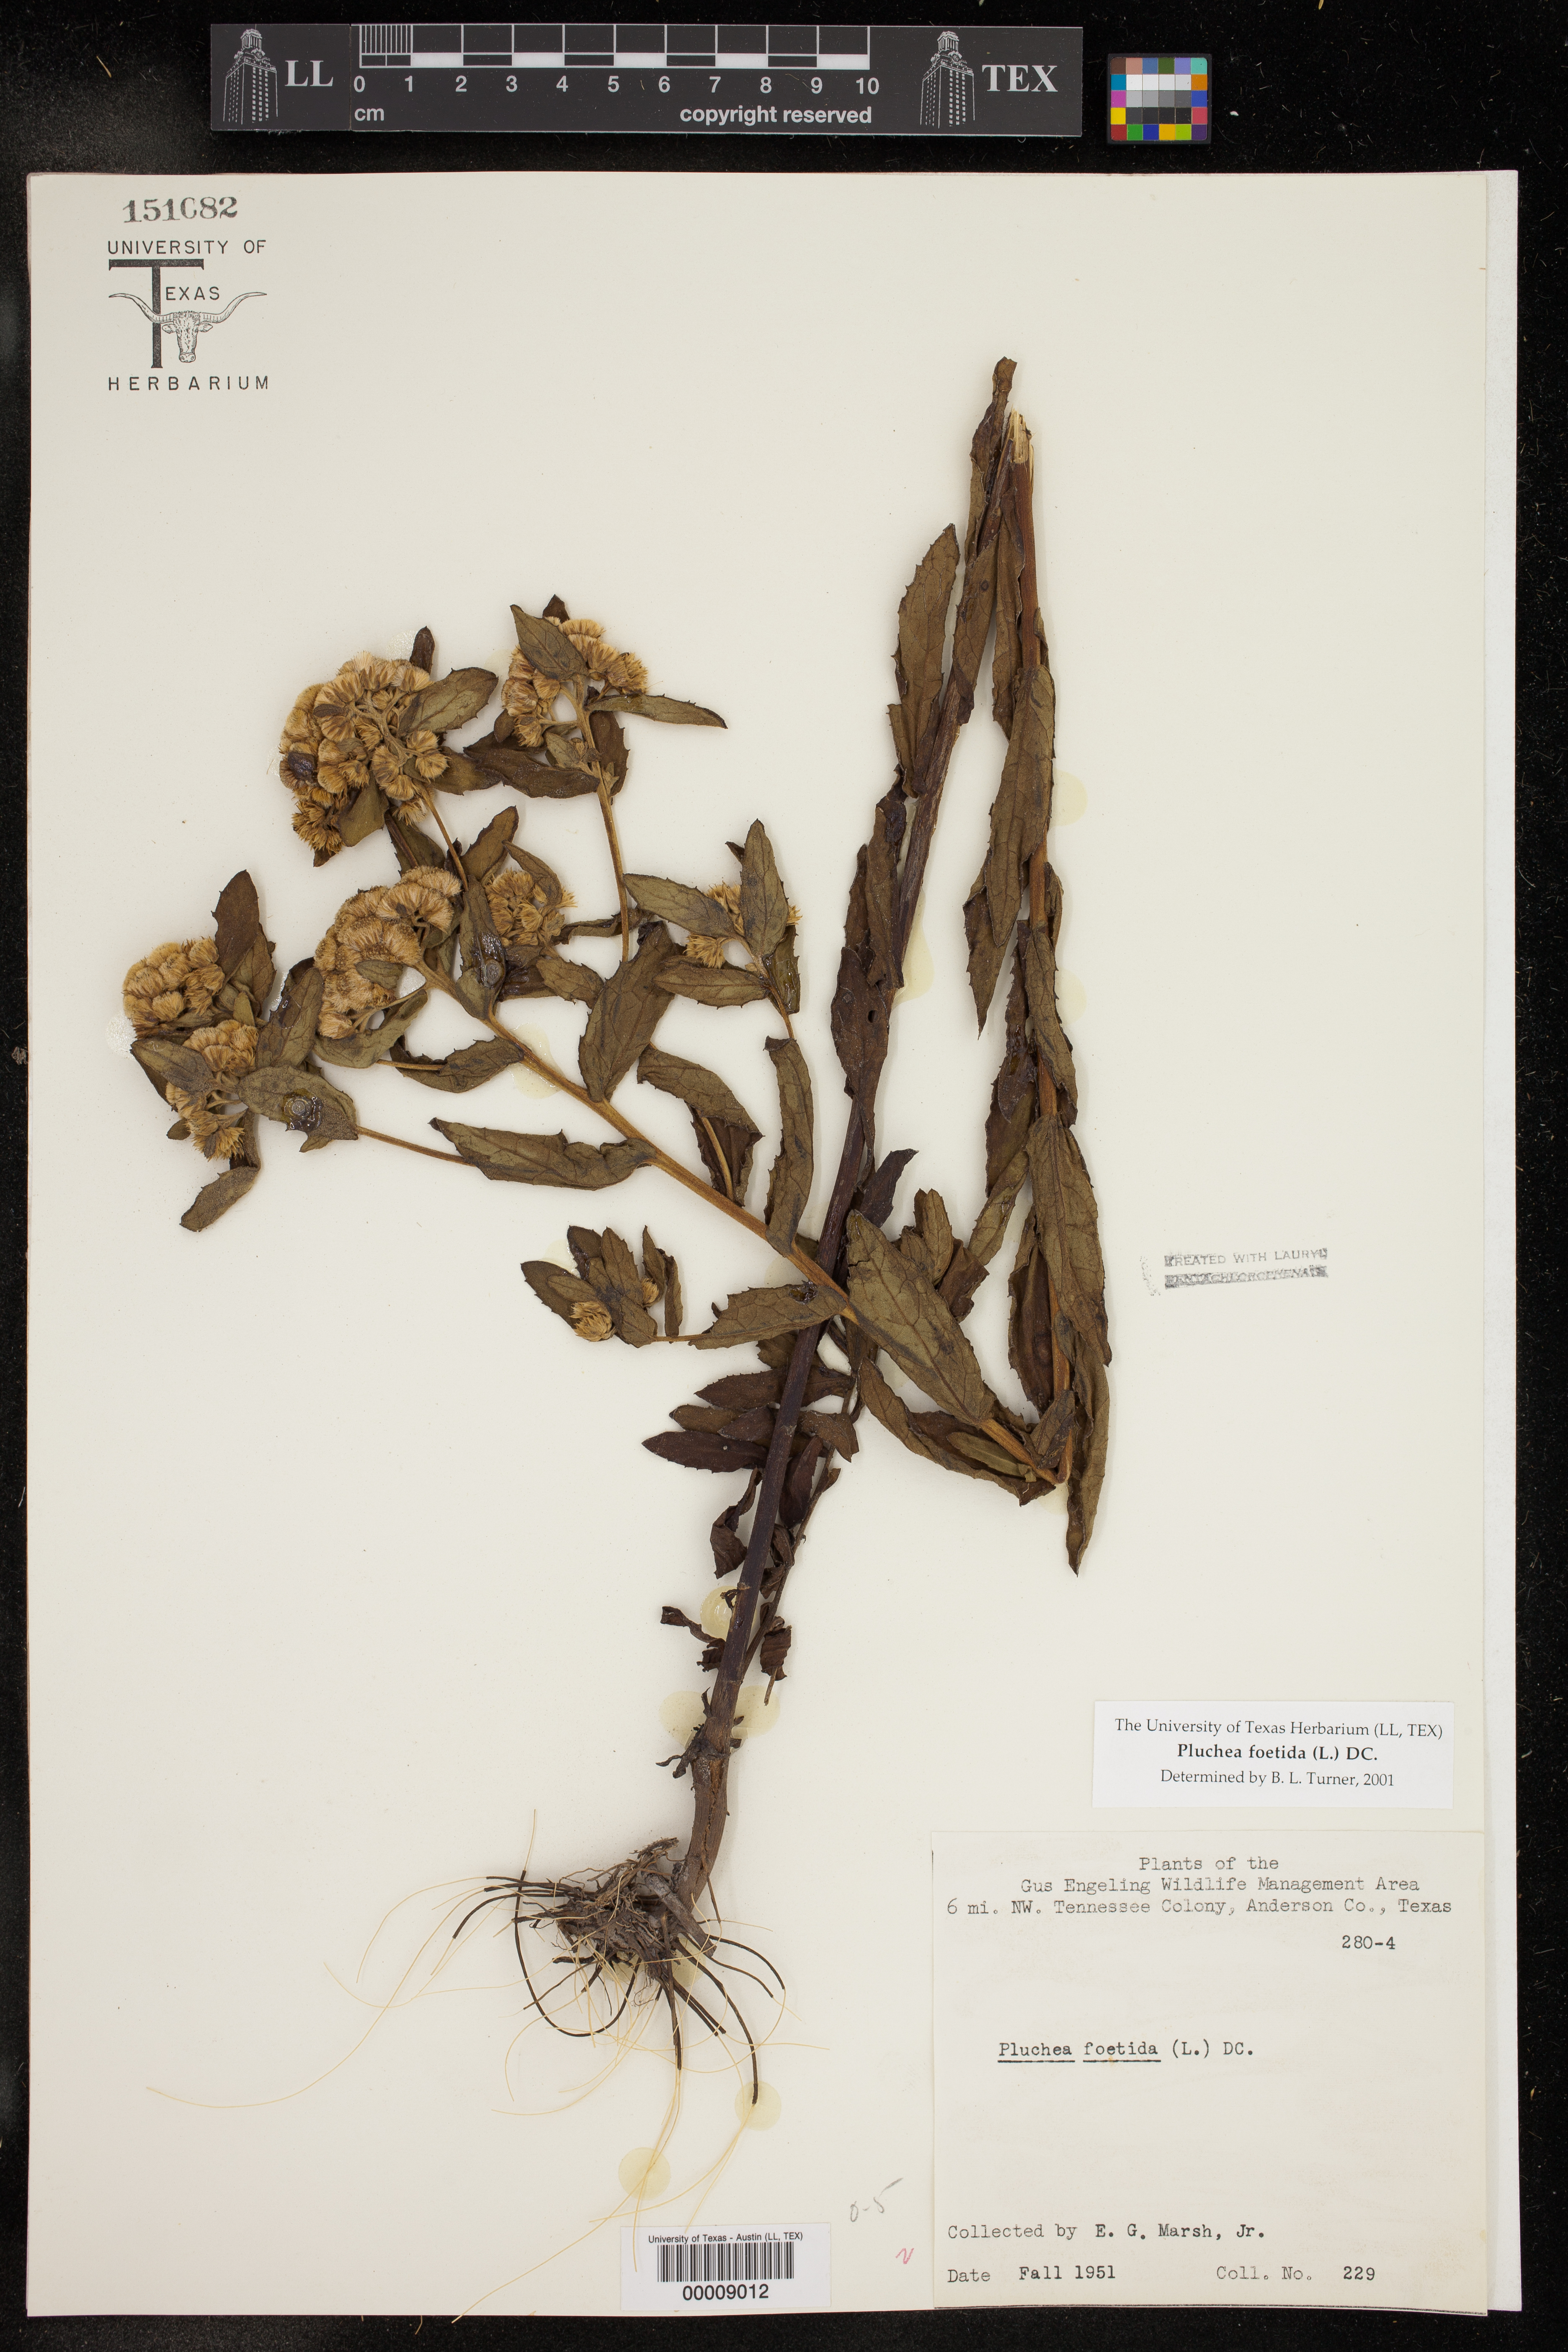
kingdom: Plantae
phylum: Tracheophyta
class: Magnoliopsida
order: Asterales
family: Asteraceae
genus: Pluchea
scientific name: Pluchea foetida
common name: Stinking camphorweed
